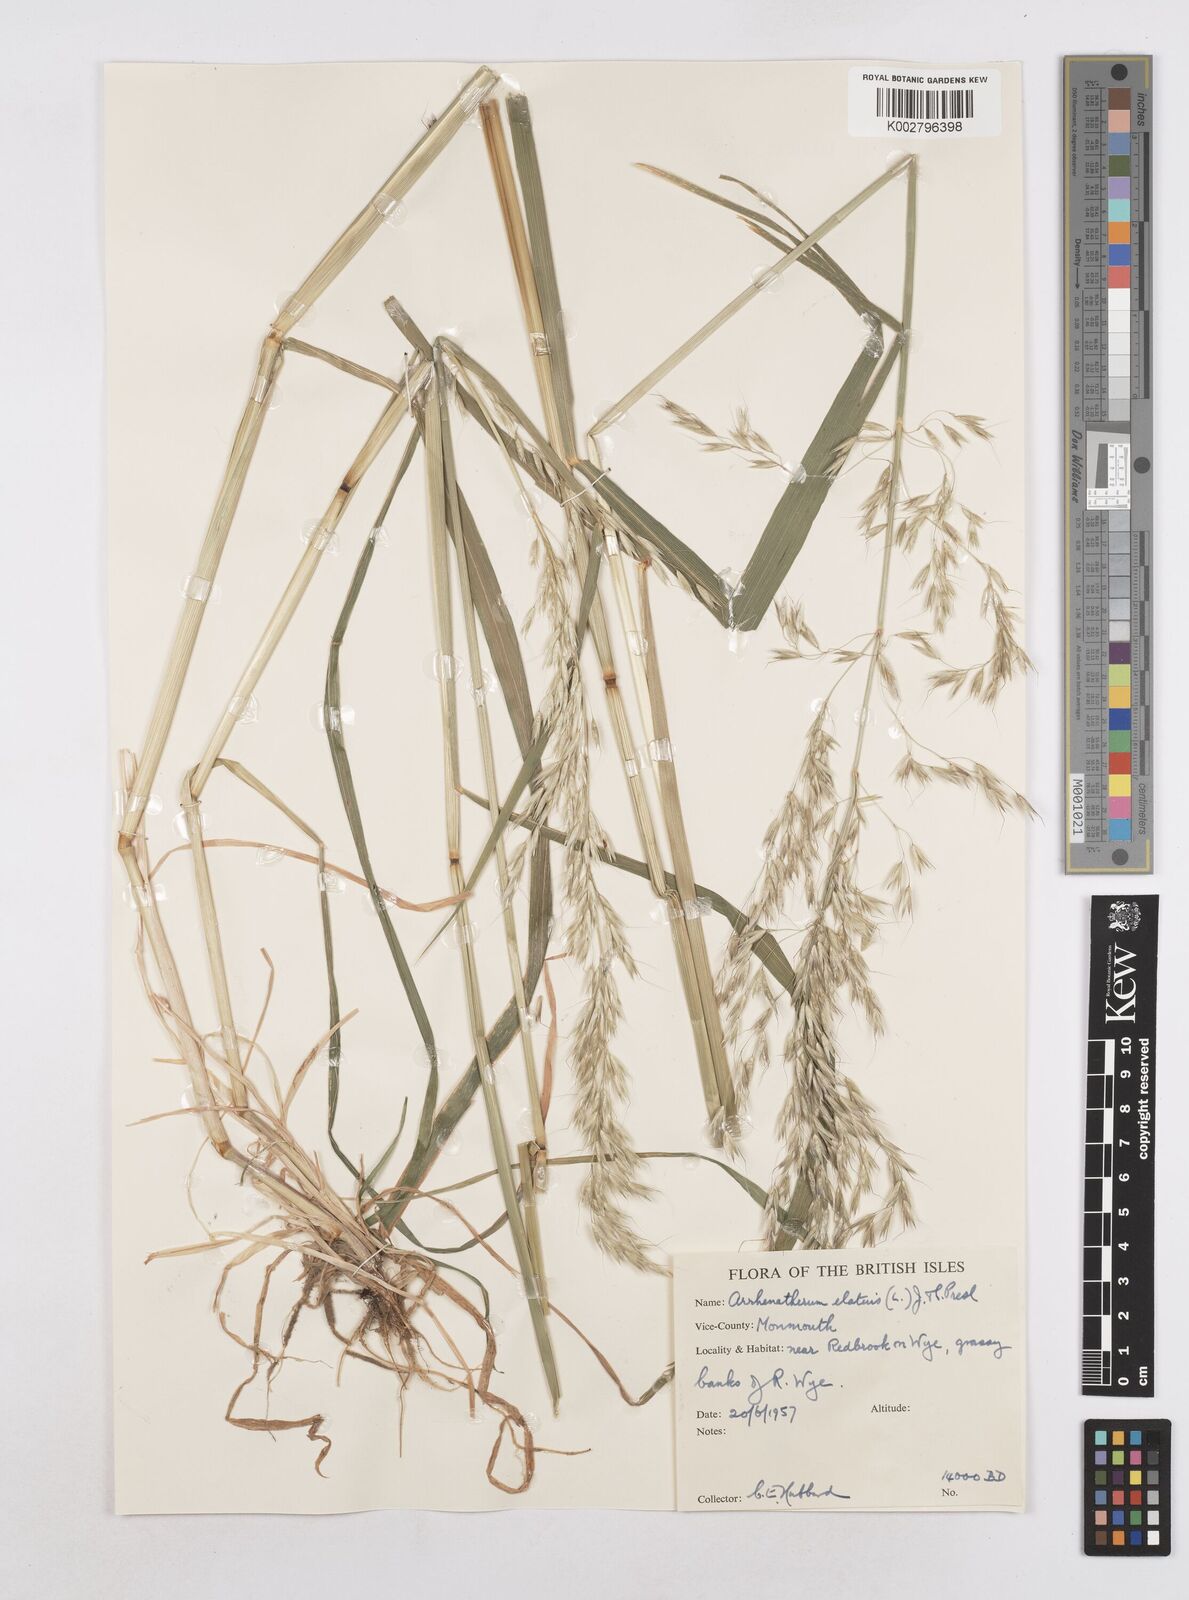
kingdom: Plantae
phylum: Tracheophyta
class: Liliopsida
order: Poales
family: Poaceae
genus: Arrhenatherum
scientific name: Arrhenatherum elatius
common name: Tall oatgrass
